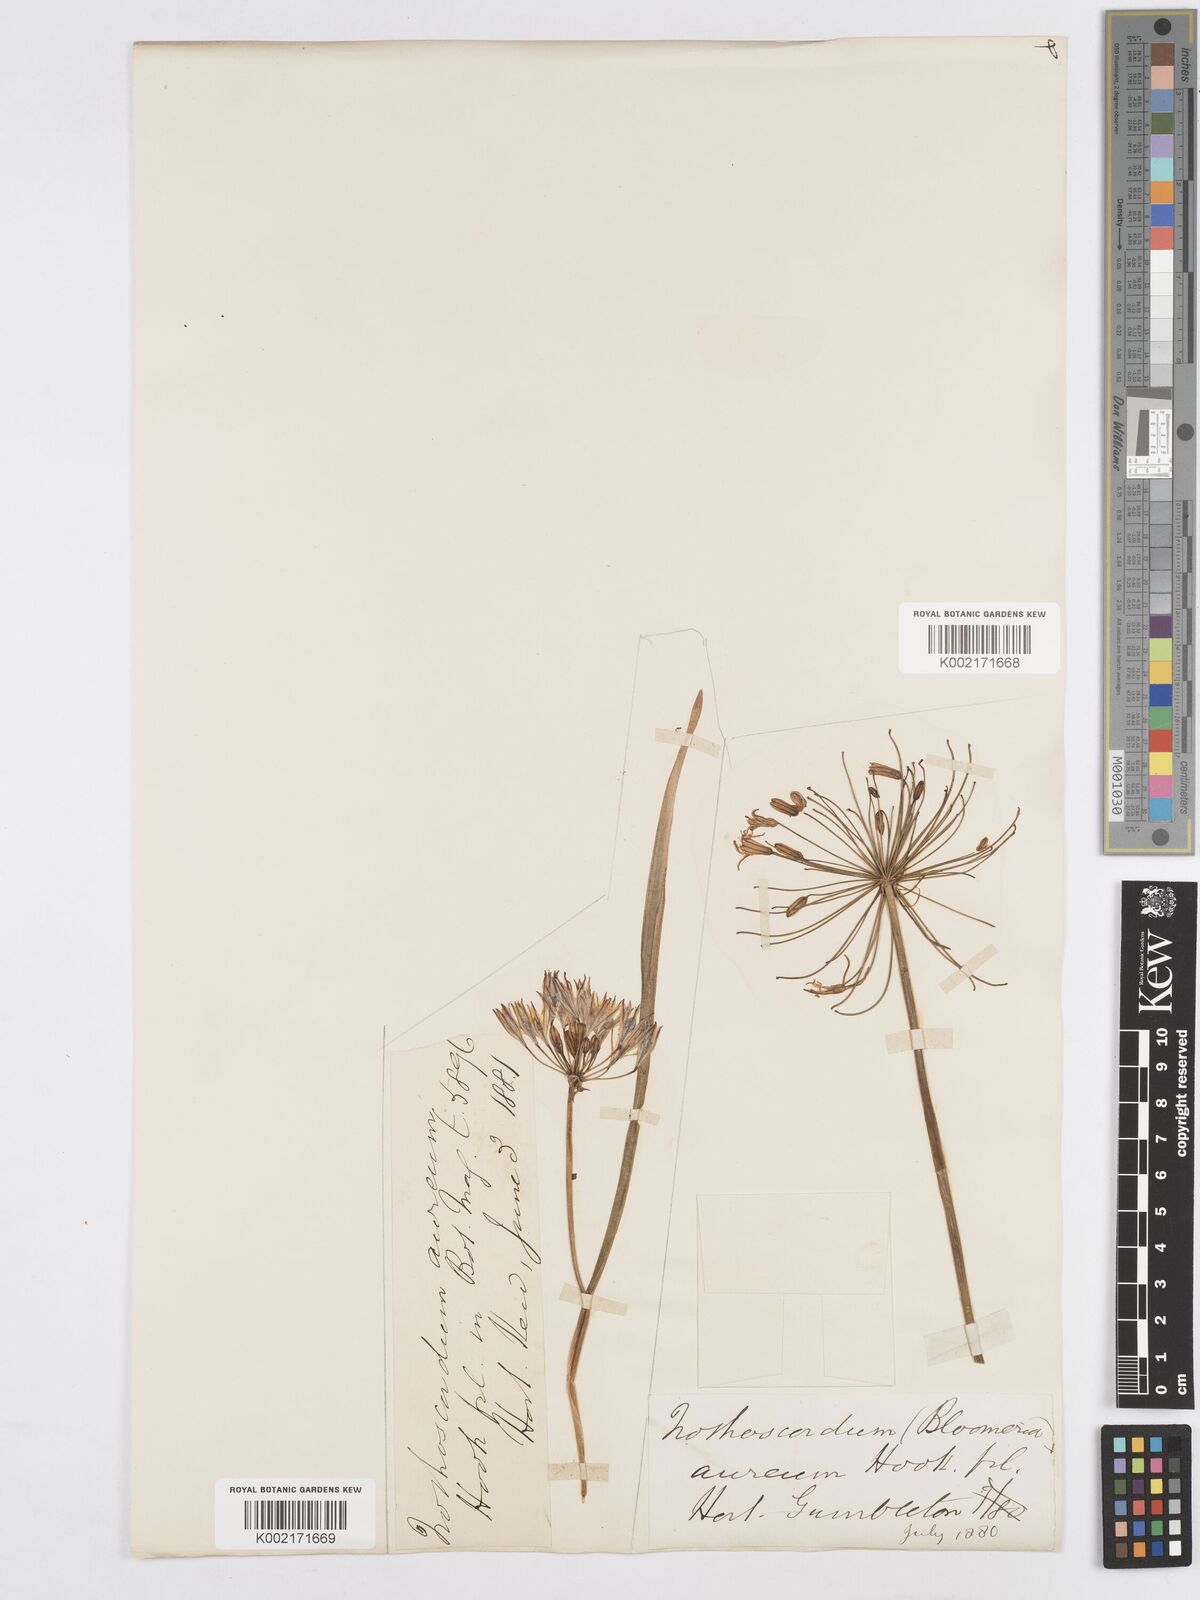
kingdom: Plantae
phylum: Tracheophyta
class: Liliopsida
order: Asparagales
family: Asparagaceae
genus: Bloomeria
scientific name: Bloomeria crocea
